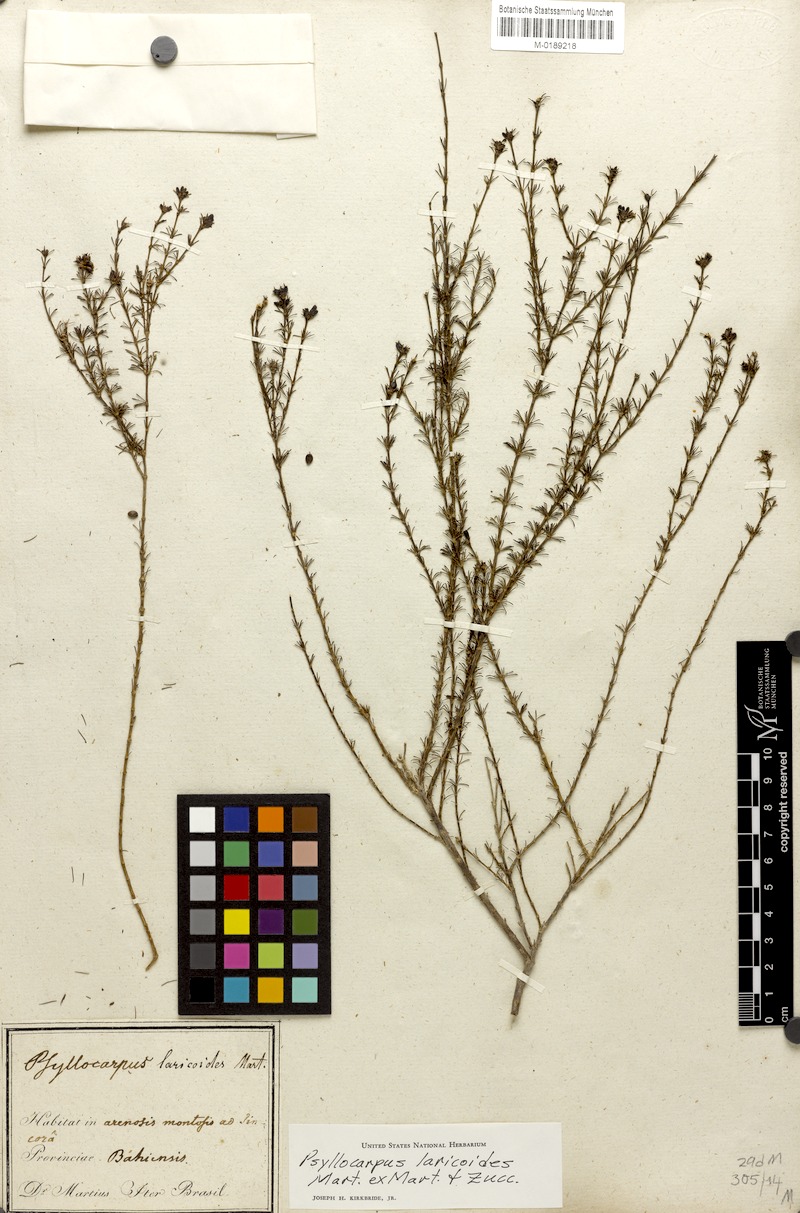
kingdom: Plantae
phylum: Tracheophyta
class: Magnoliopsida
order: Gentianales
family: Rubiaceae
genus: Psyllocarpus
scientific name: Psyllocarpus laricoides
